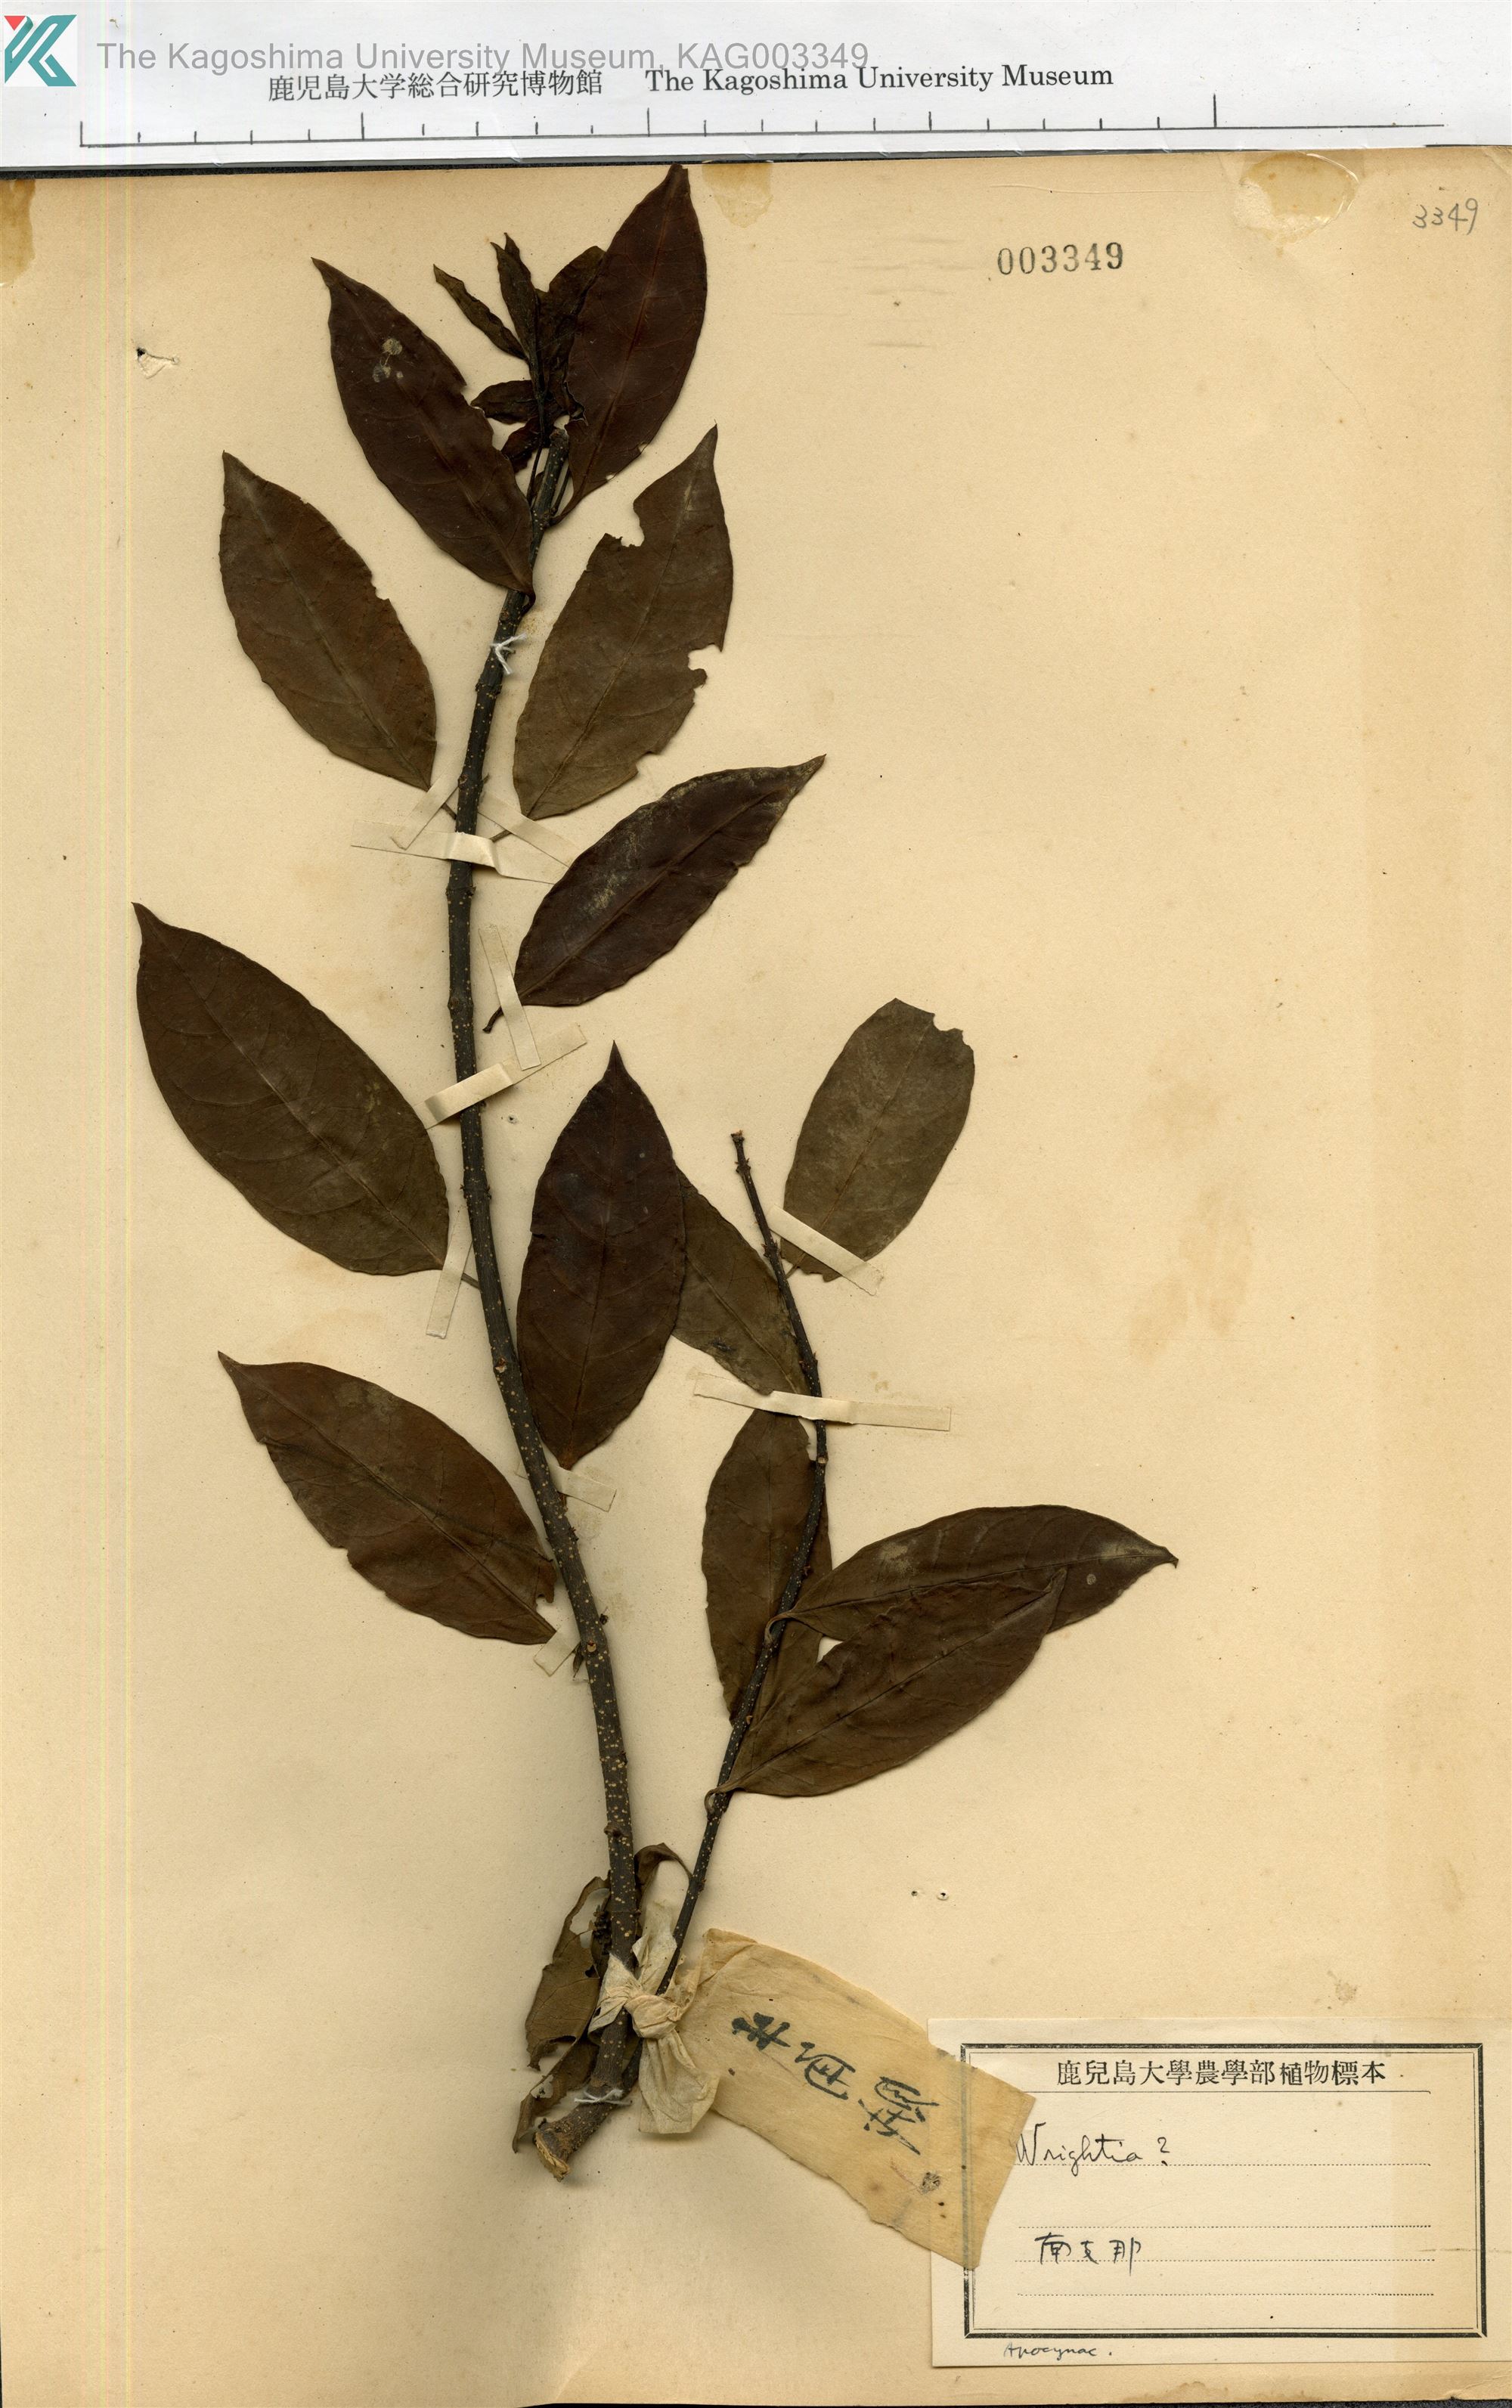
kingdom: Plantae
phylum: Tracheophyta
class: Magnoliopsida
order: Gentianales
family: Apocynaceae
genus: Wrightia
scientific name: Wrightia
